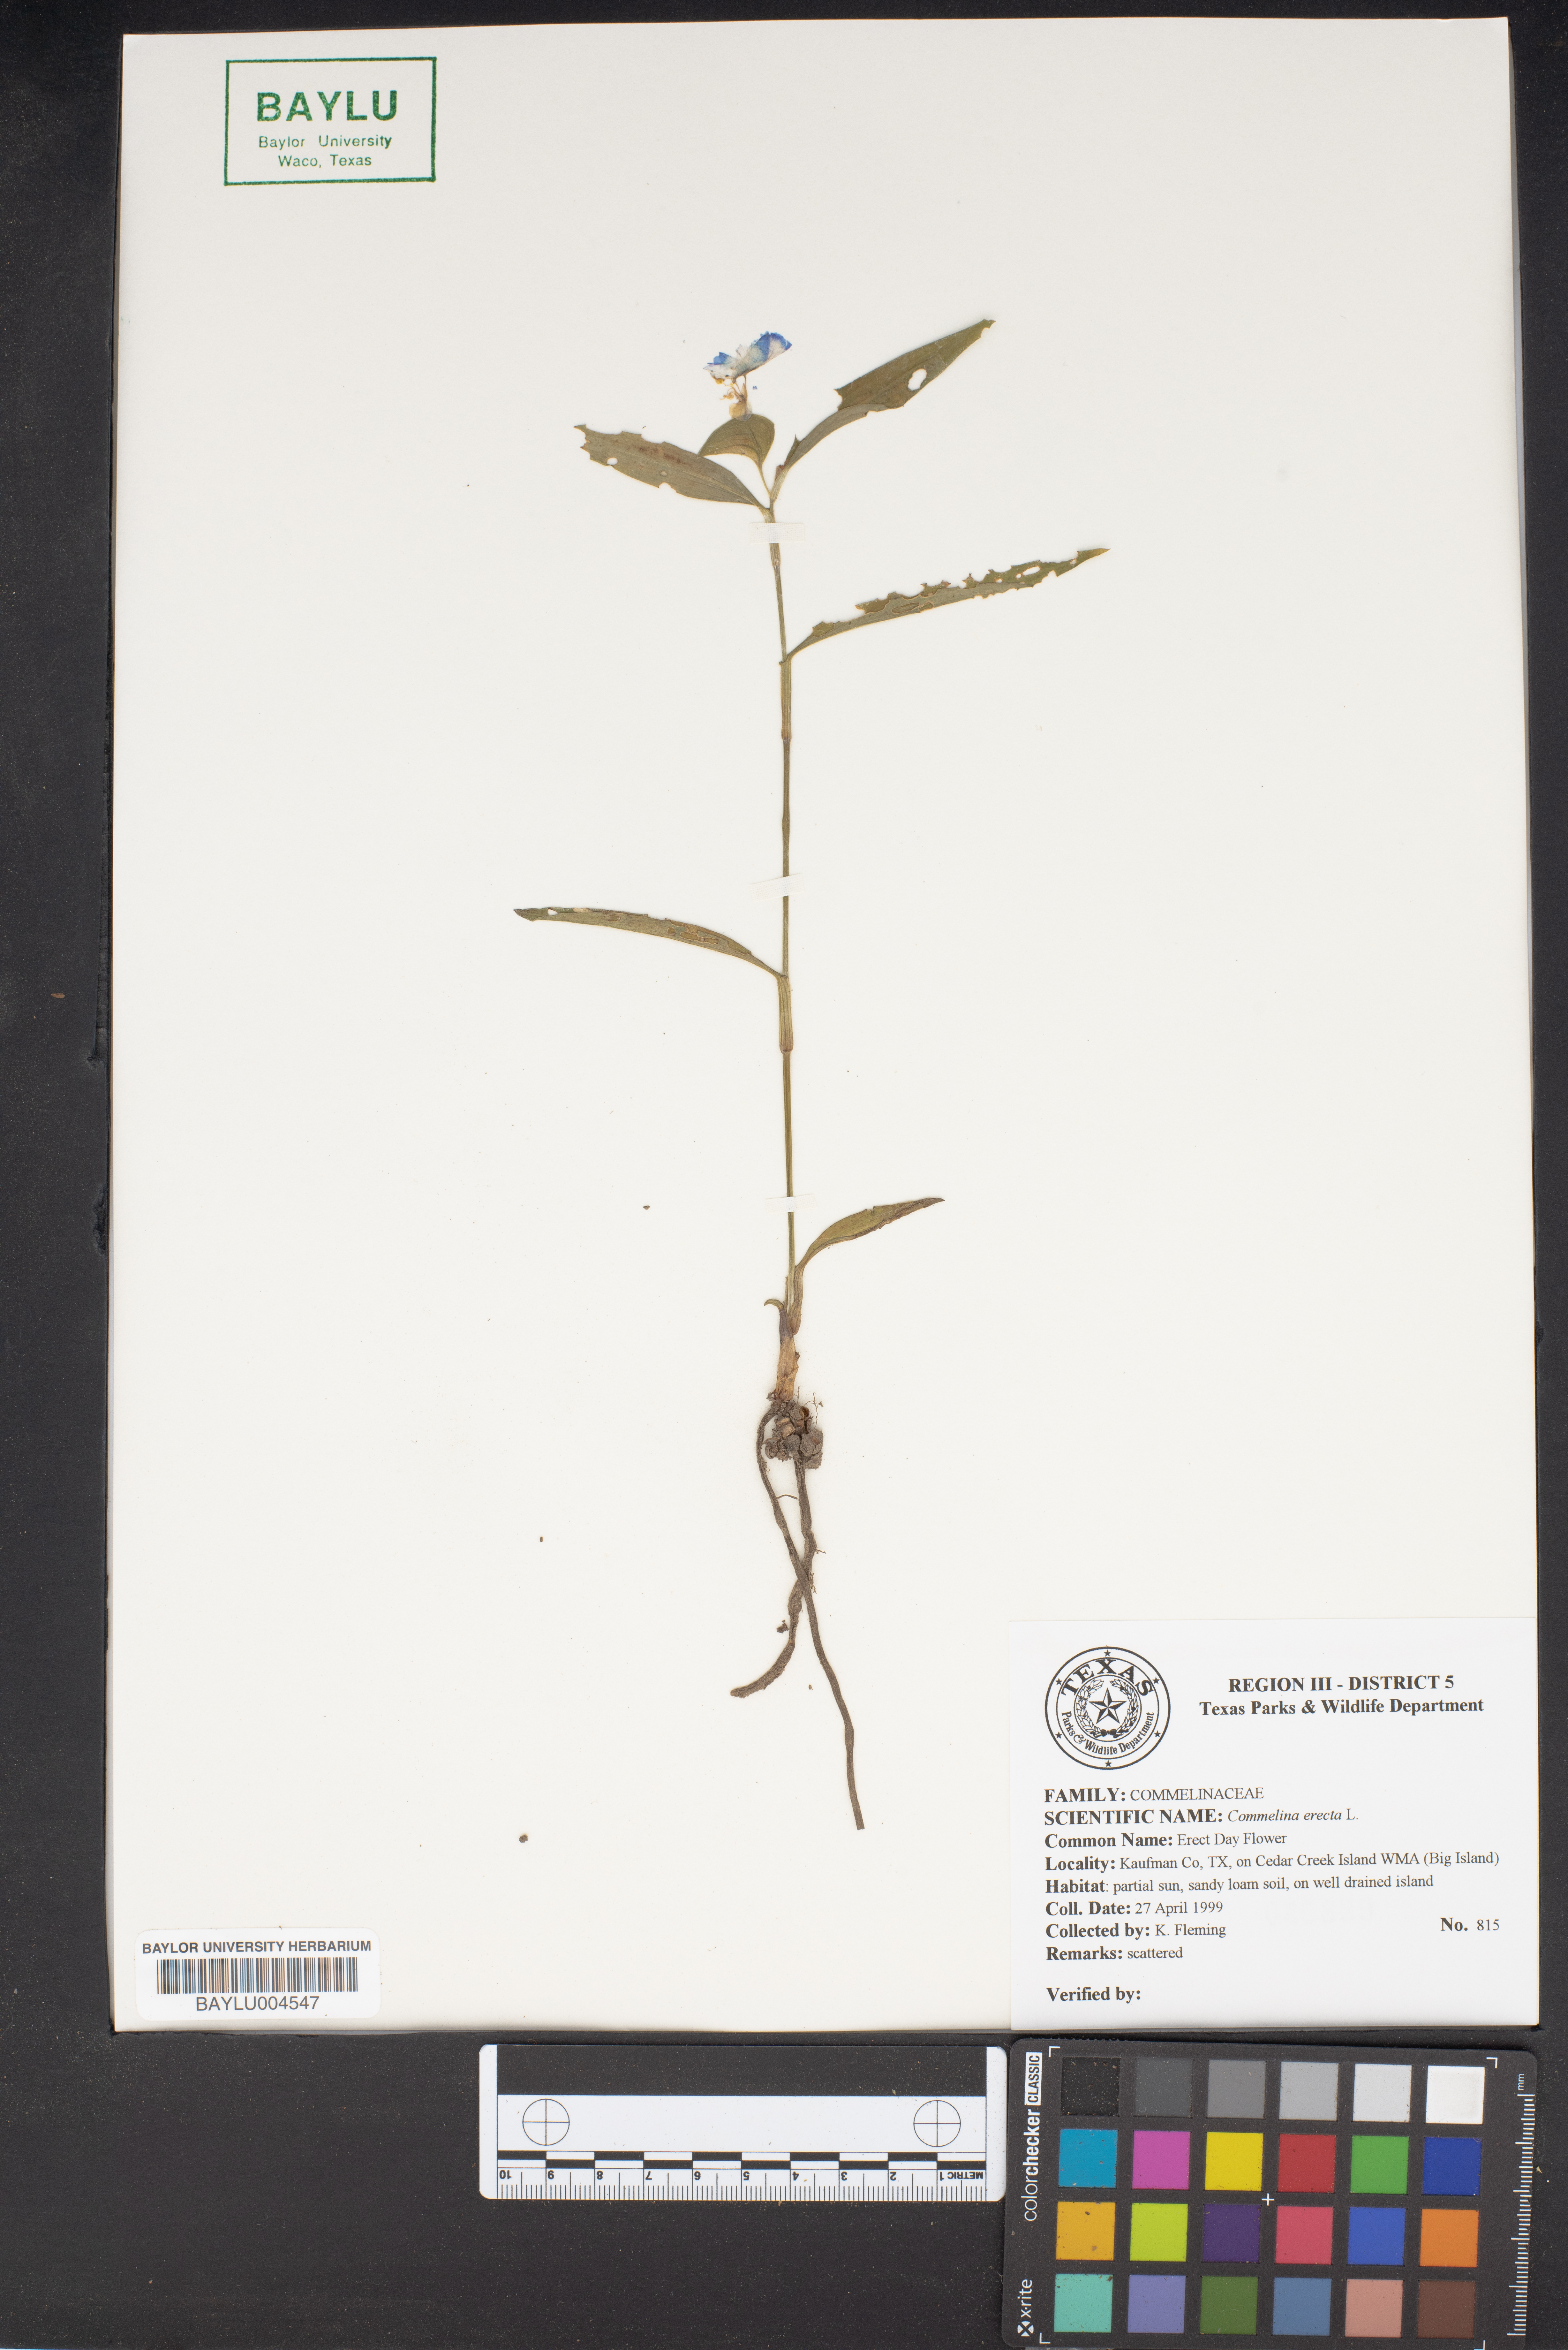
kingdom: Plantae
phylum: Tracheophyta
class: Liliopsida
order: Commelinales
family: Commelinaceae
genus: Commelina
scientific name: Commelina erecta
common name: Blousel blommetjie
